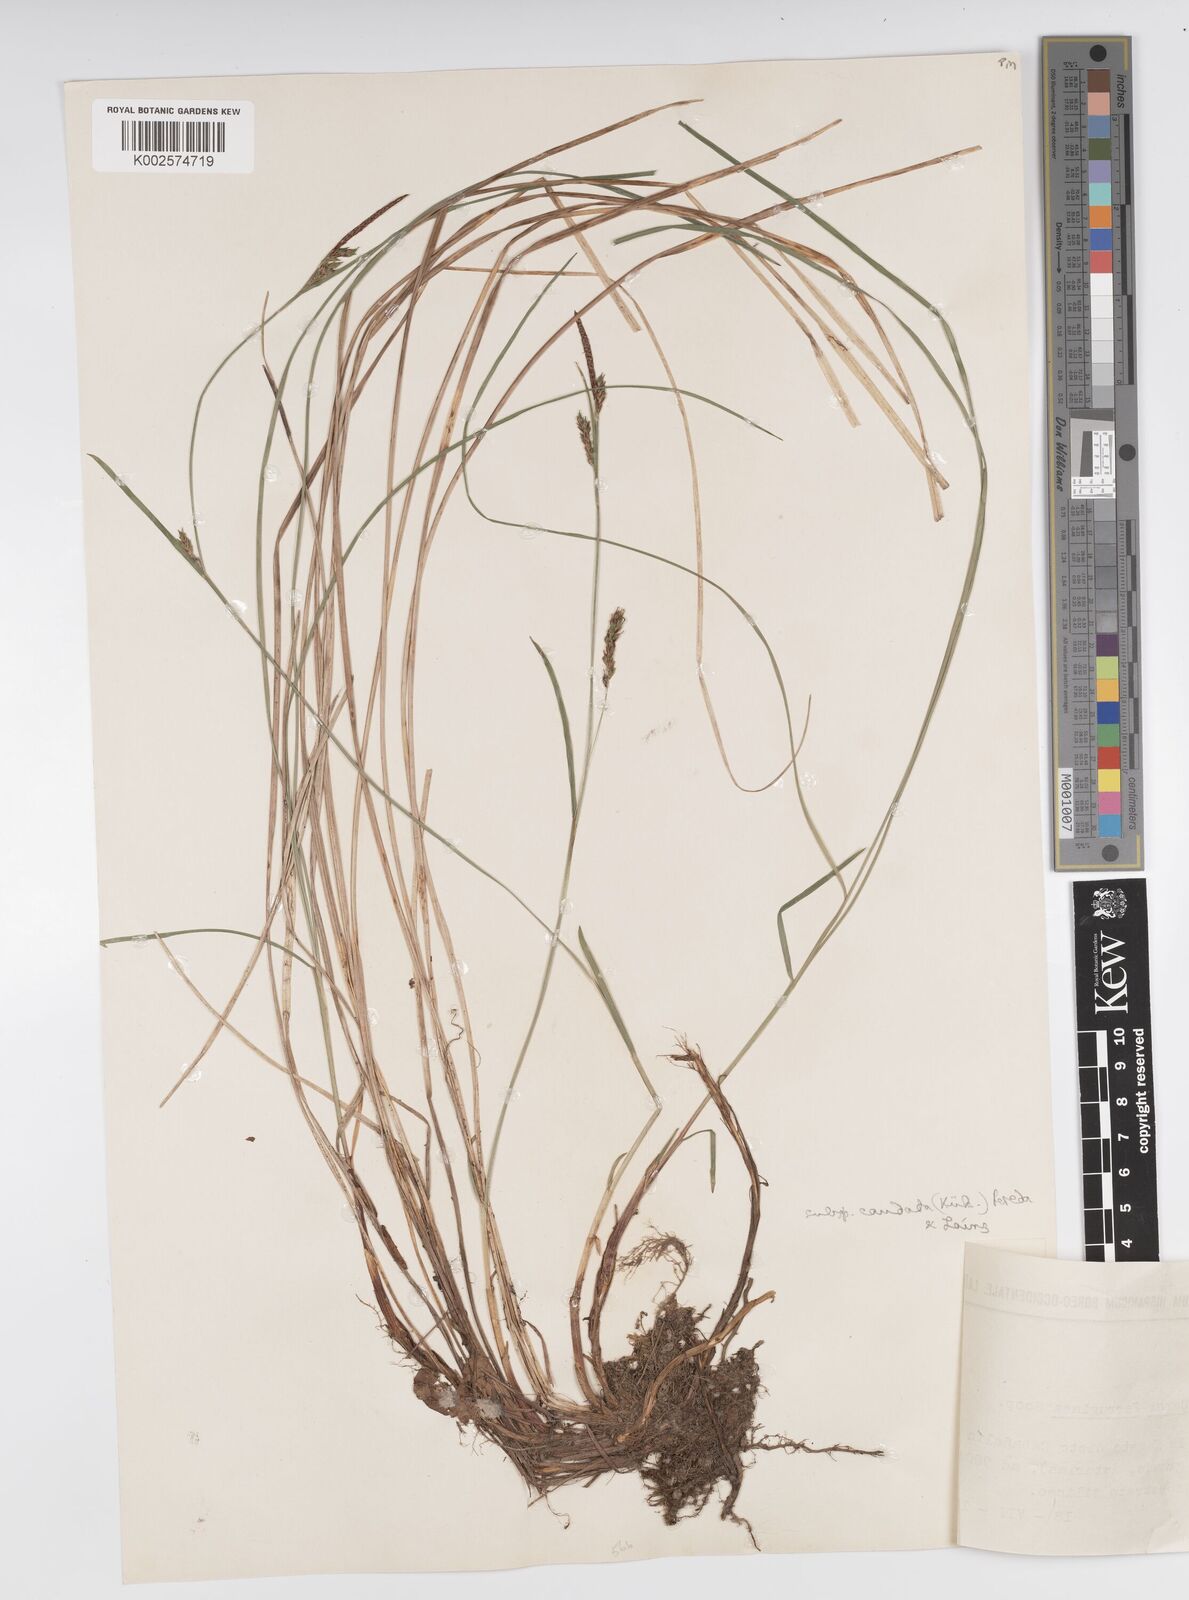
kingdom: Plantae
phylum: Tracheophyta
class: Liliopsida
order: Poales
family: Cyperaceae
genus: Carex
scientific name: Carex ferruginea
